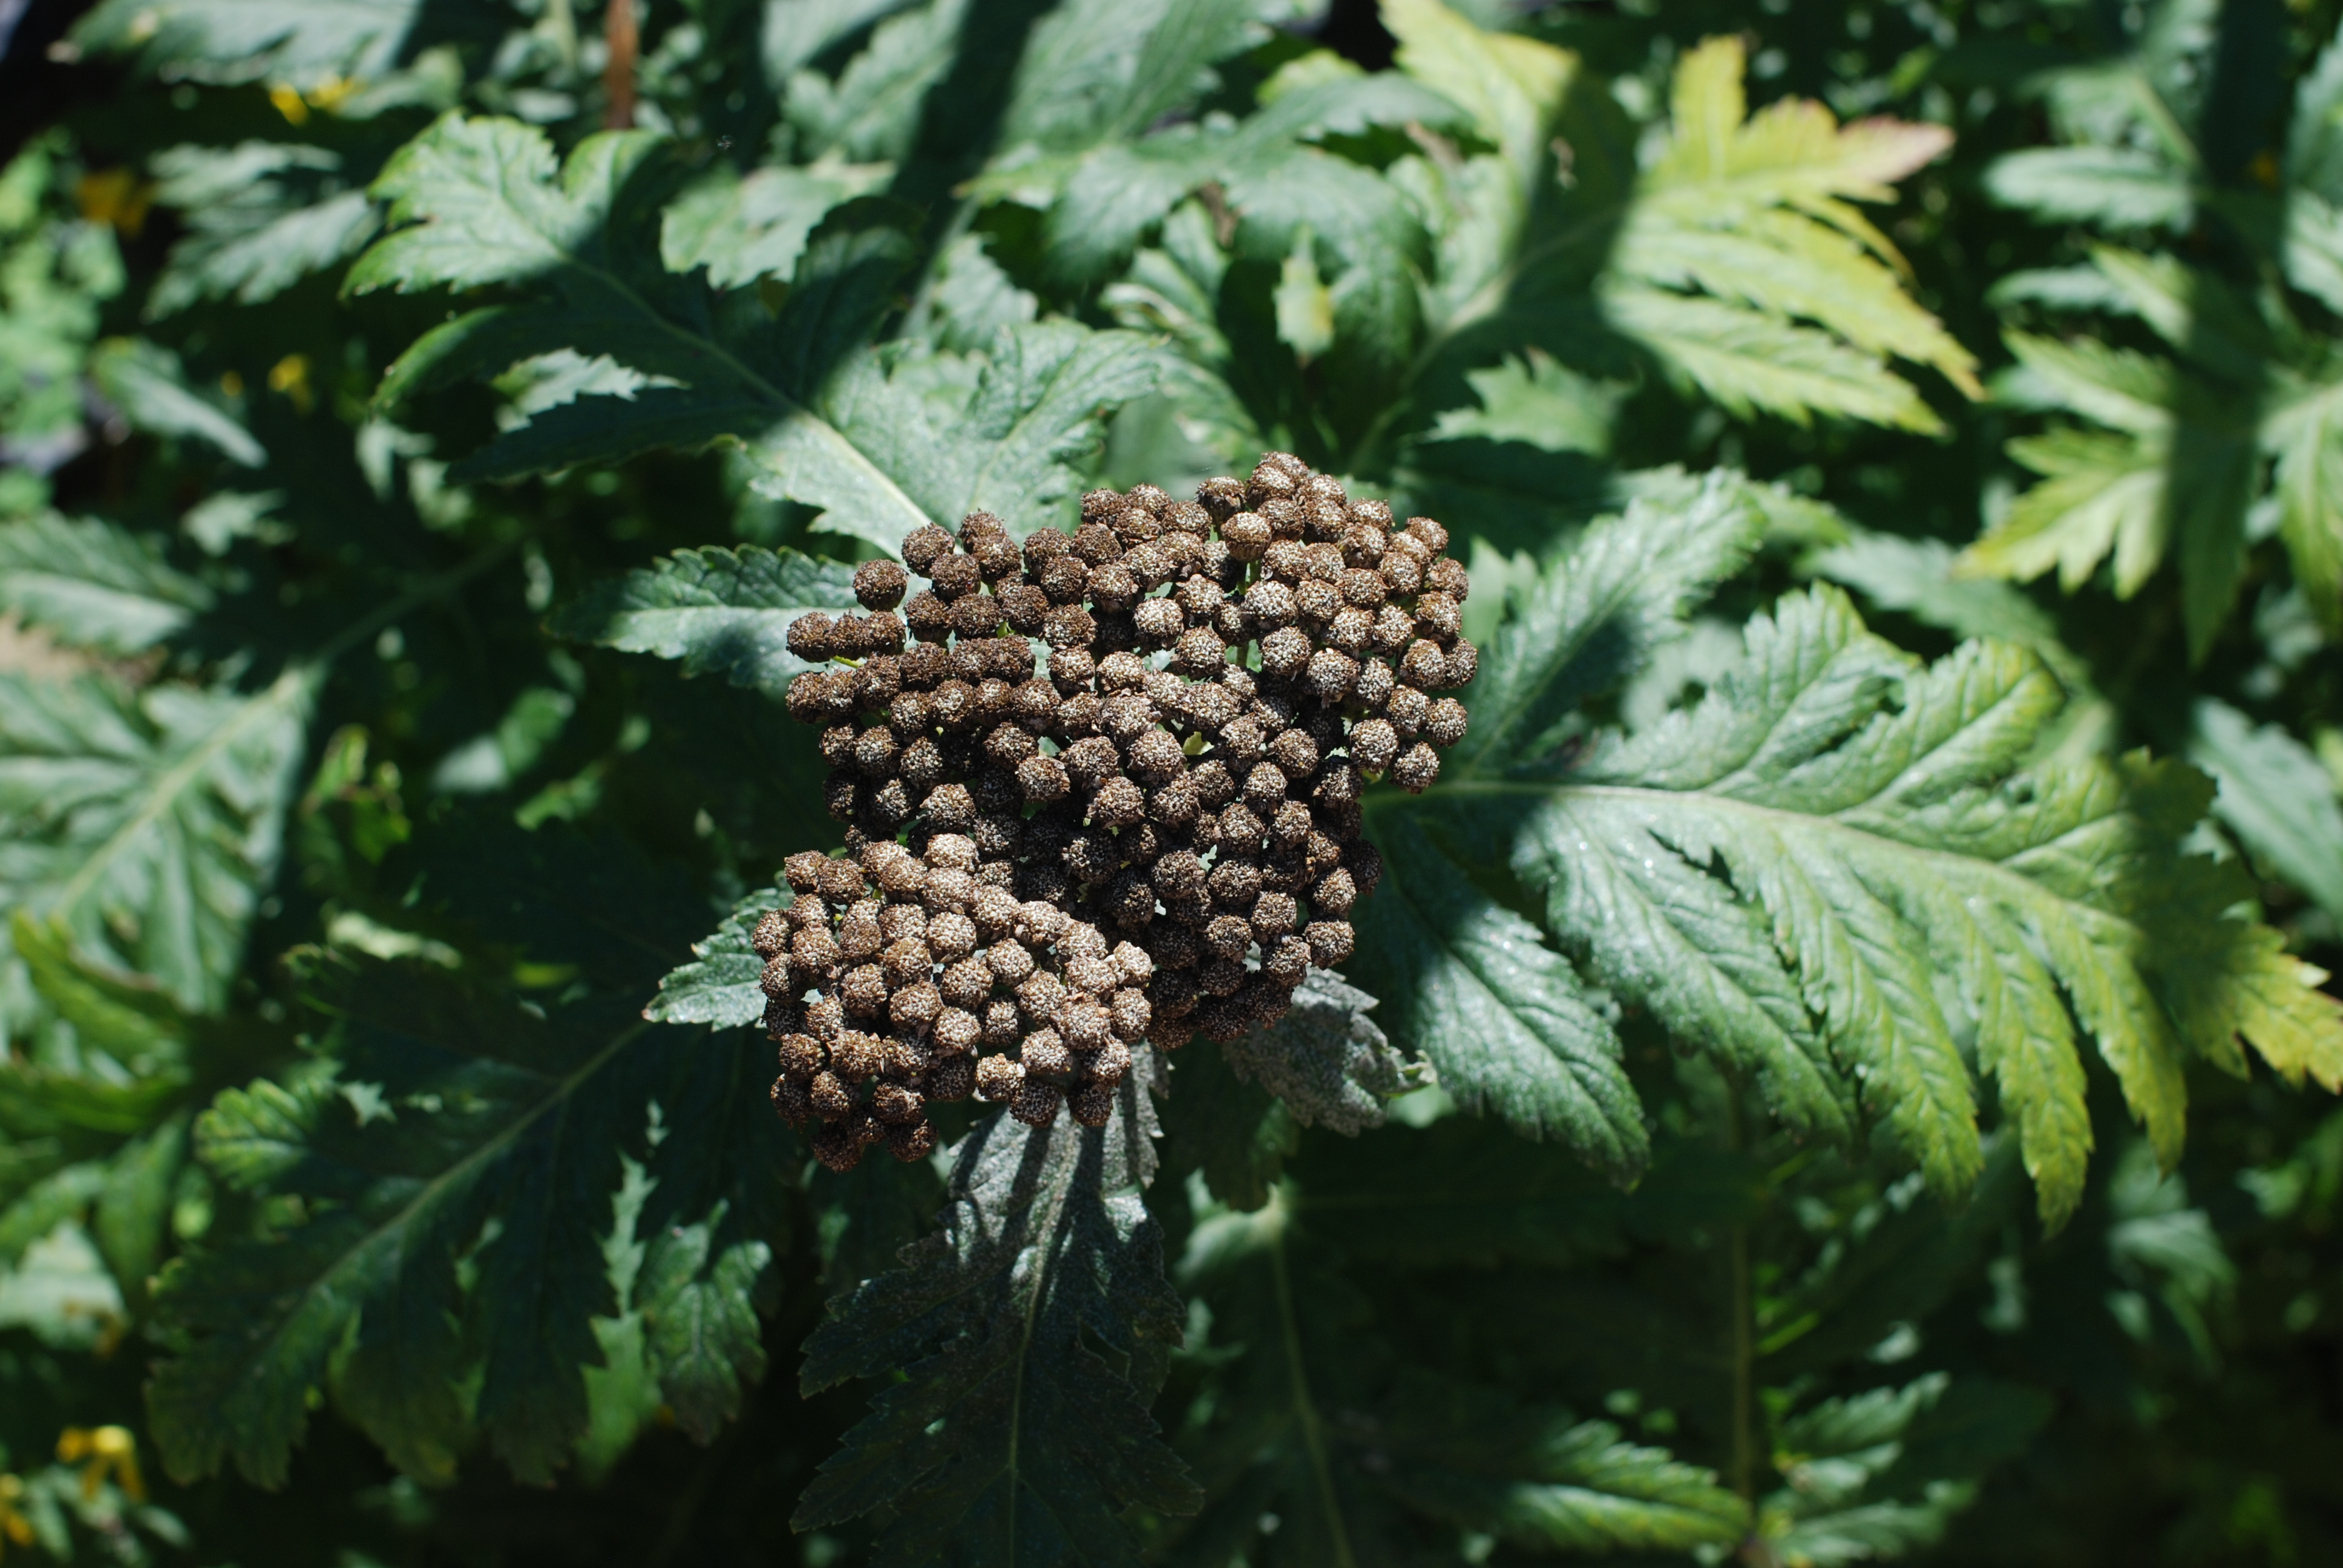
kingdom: Plantae
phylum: Tracheophyta
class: Magnoliopsida
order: Asterales
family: Asteraceae
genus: Tanacetum
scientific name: Tanacetum macrophyllum
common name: Rayed tansy
